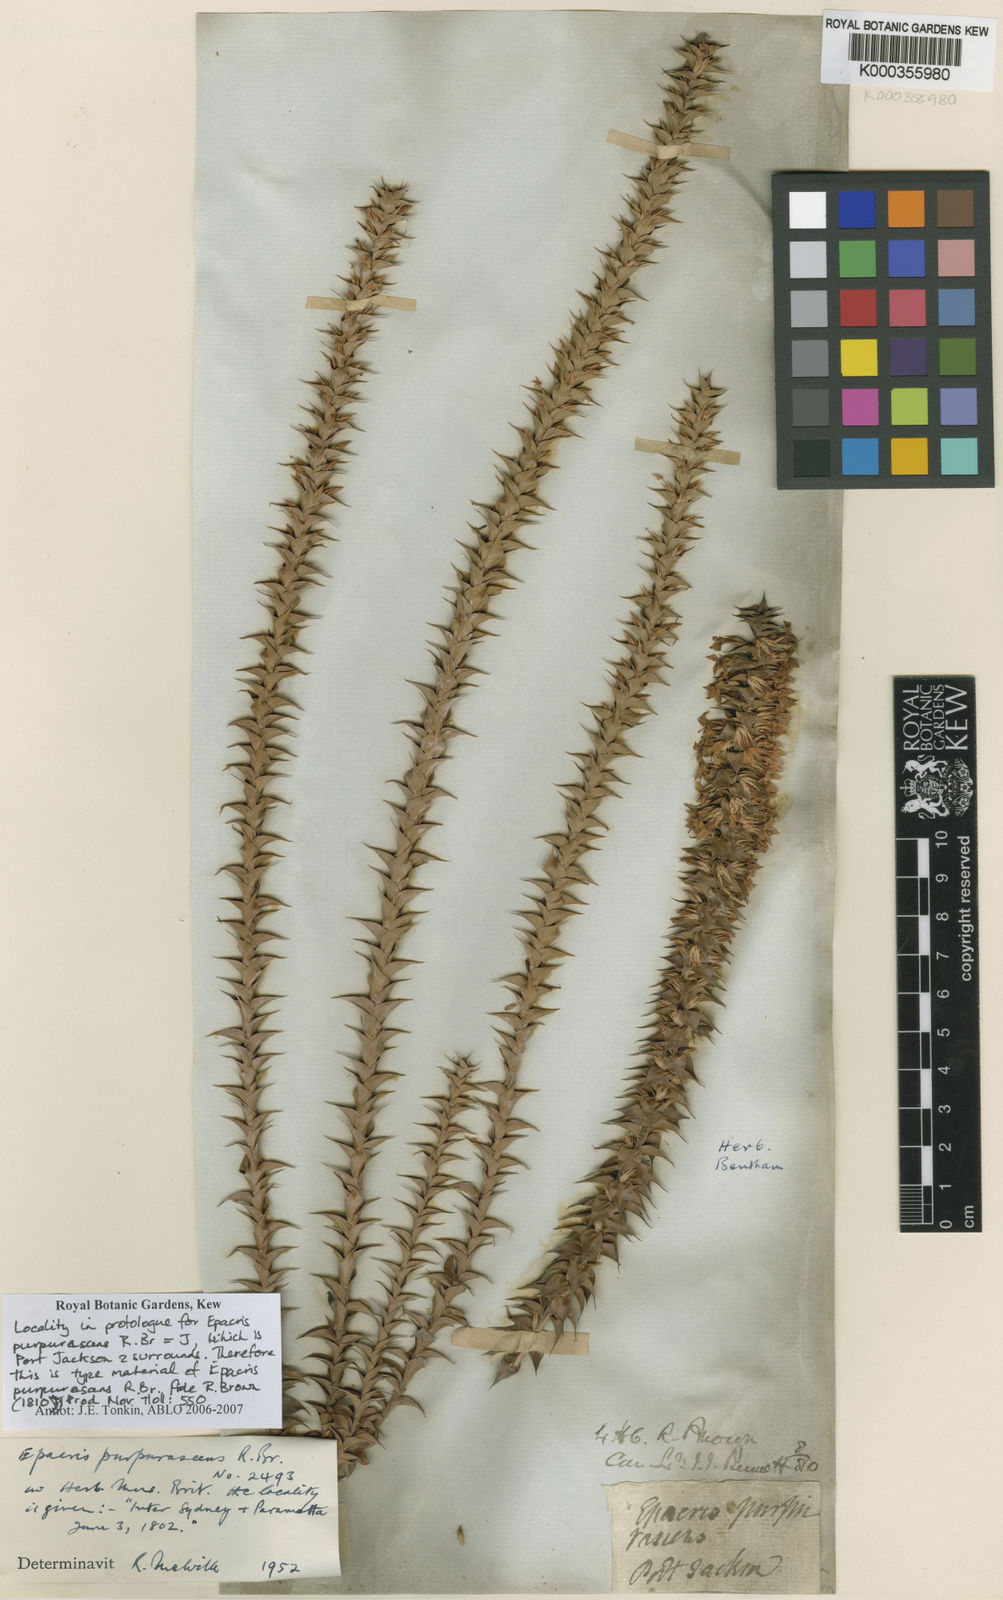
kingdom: Plantae
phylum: Tracheophyta
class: Magnoliopsida
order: Ericales
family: Ericaceae
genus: Epacris
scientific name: Epacris
